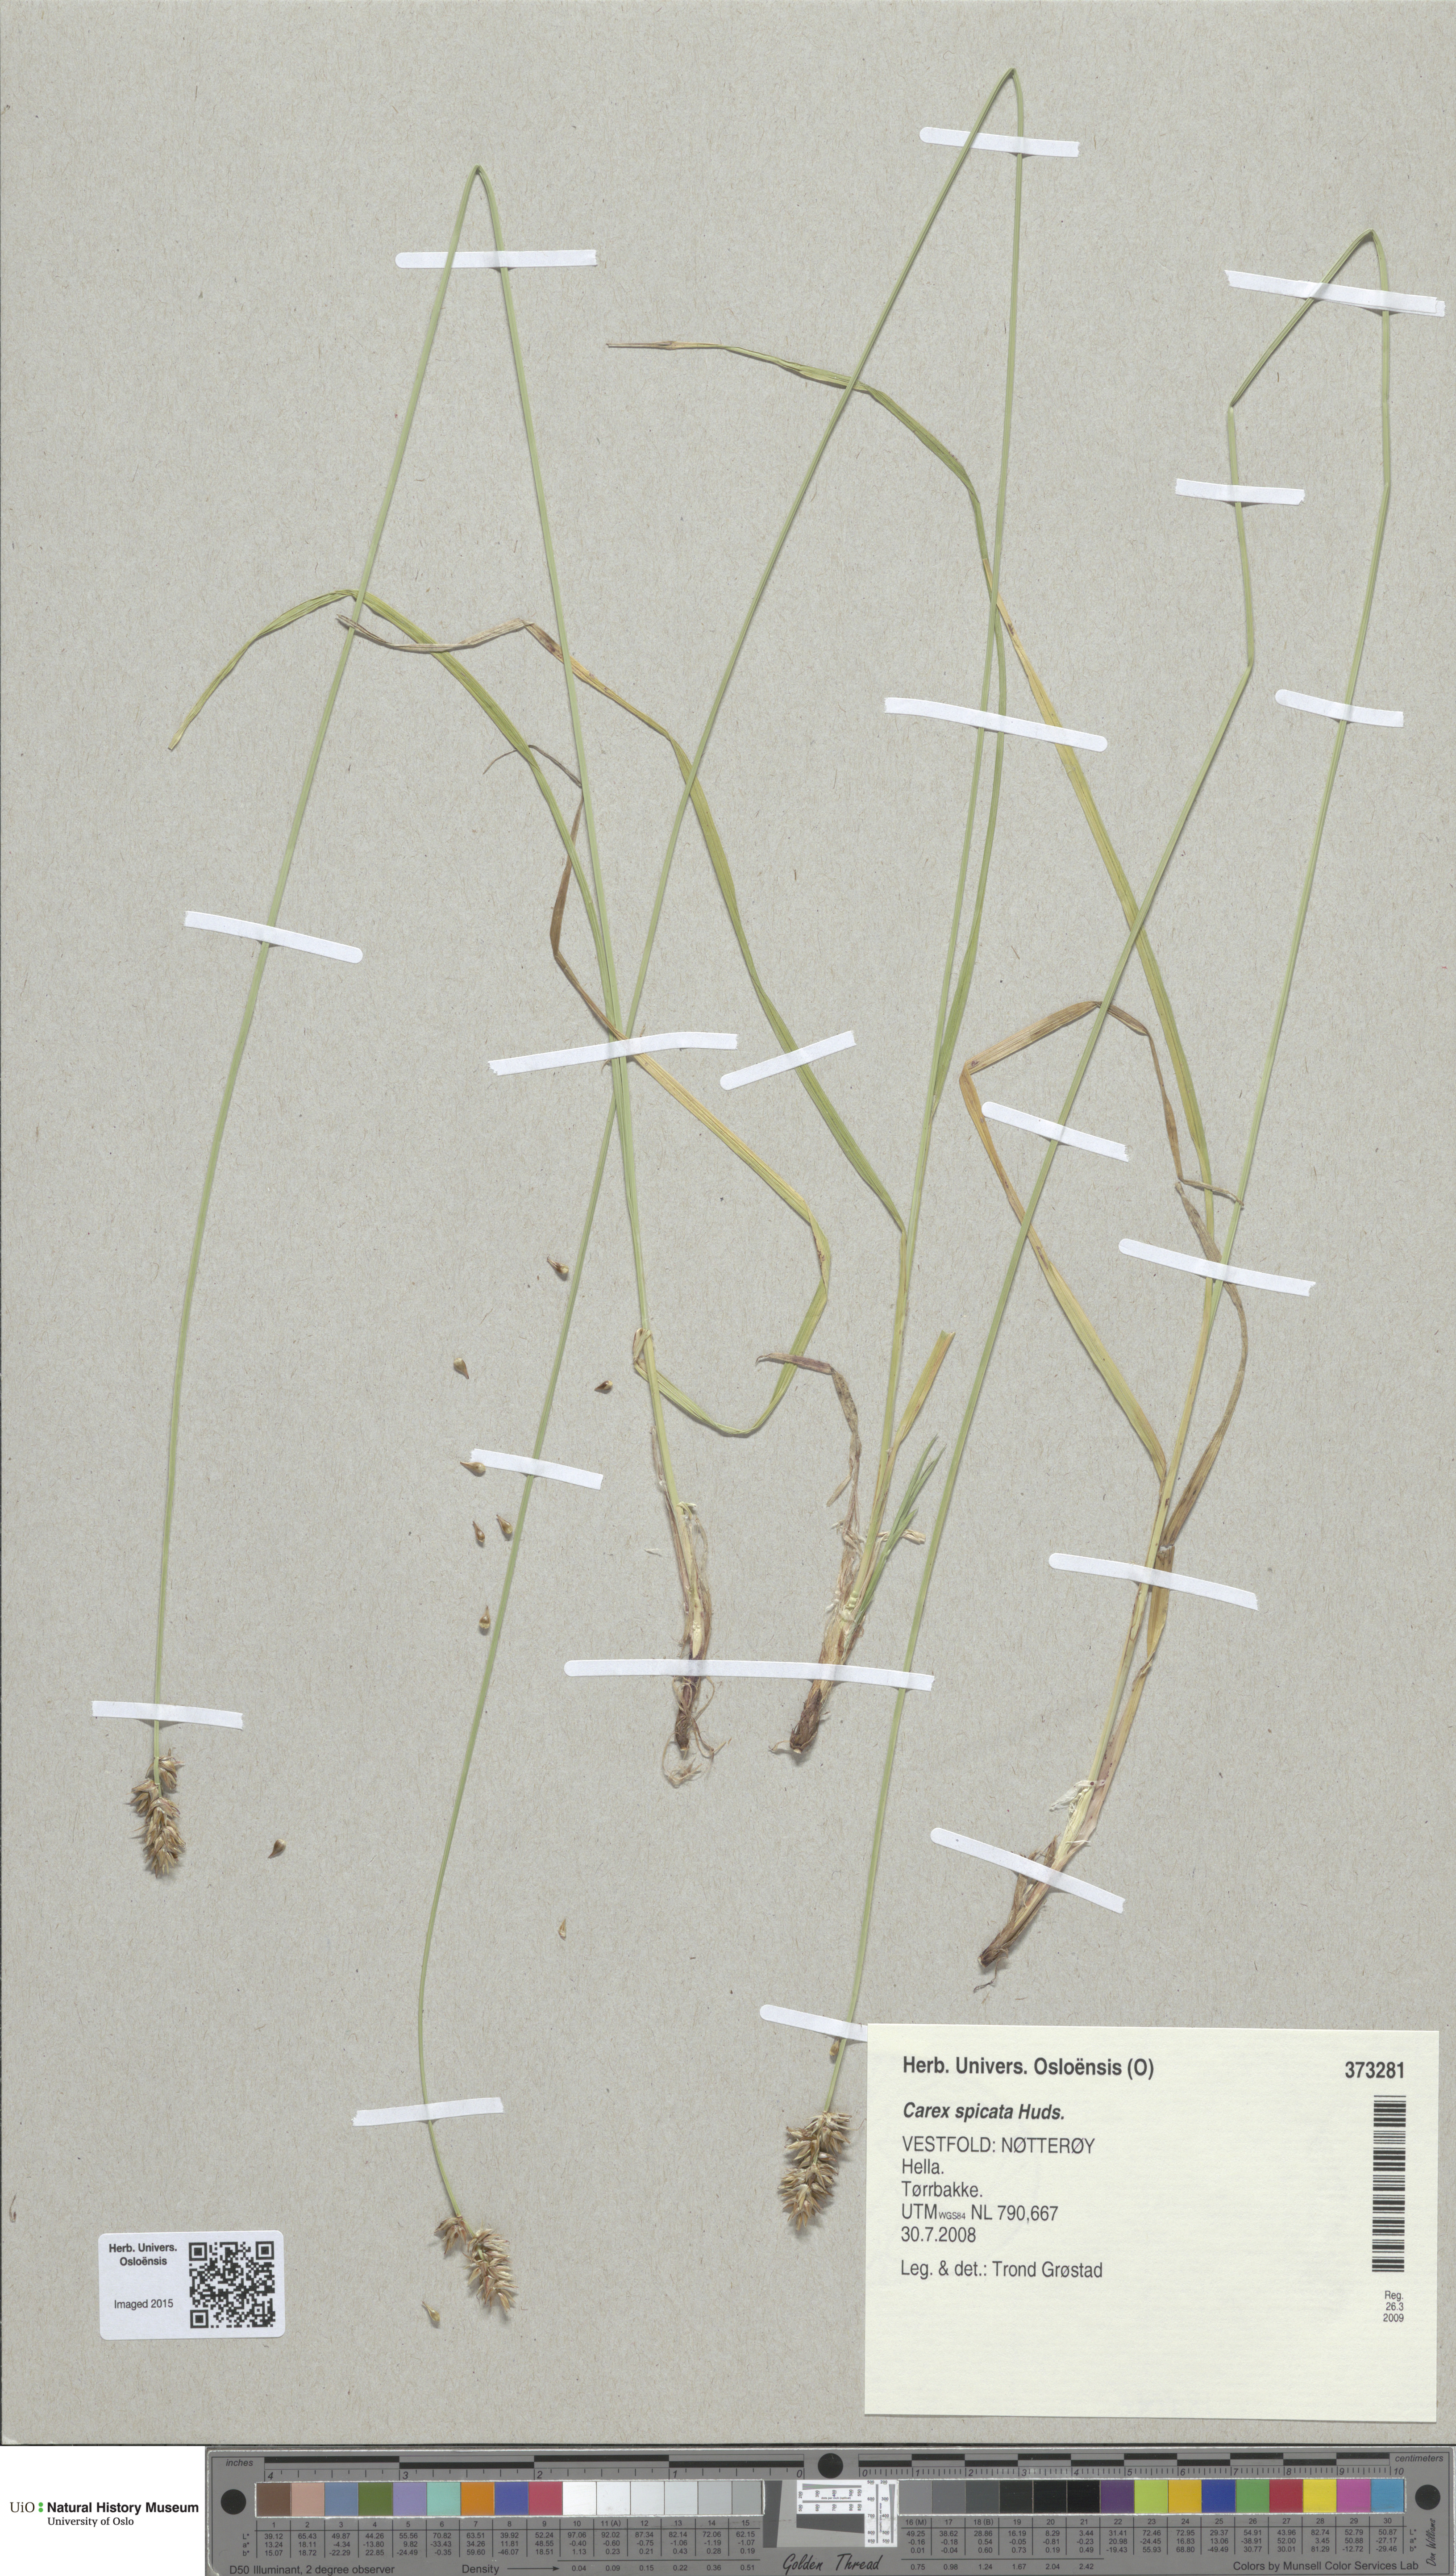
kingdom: Plantae
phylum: Tracheophyta
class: Liliopsida
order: Poales
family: Cyperaceae
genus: Carex
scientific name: Carex spicata
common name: Spiked sedge
